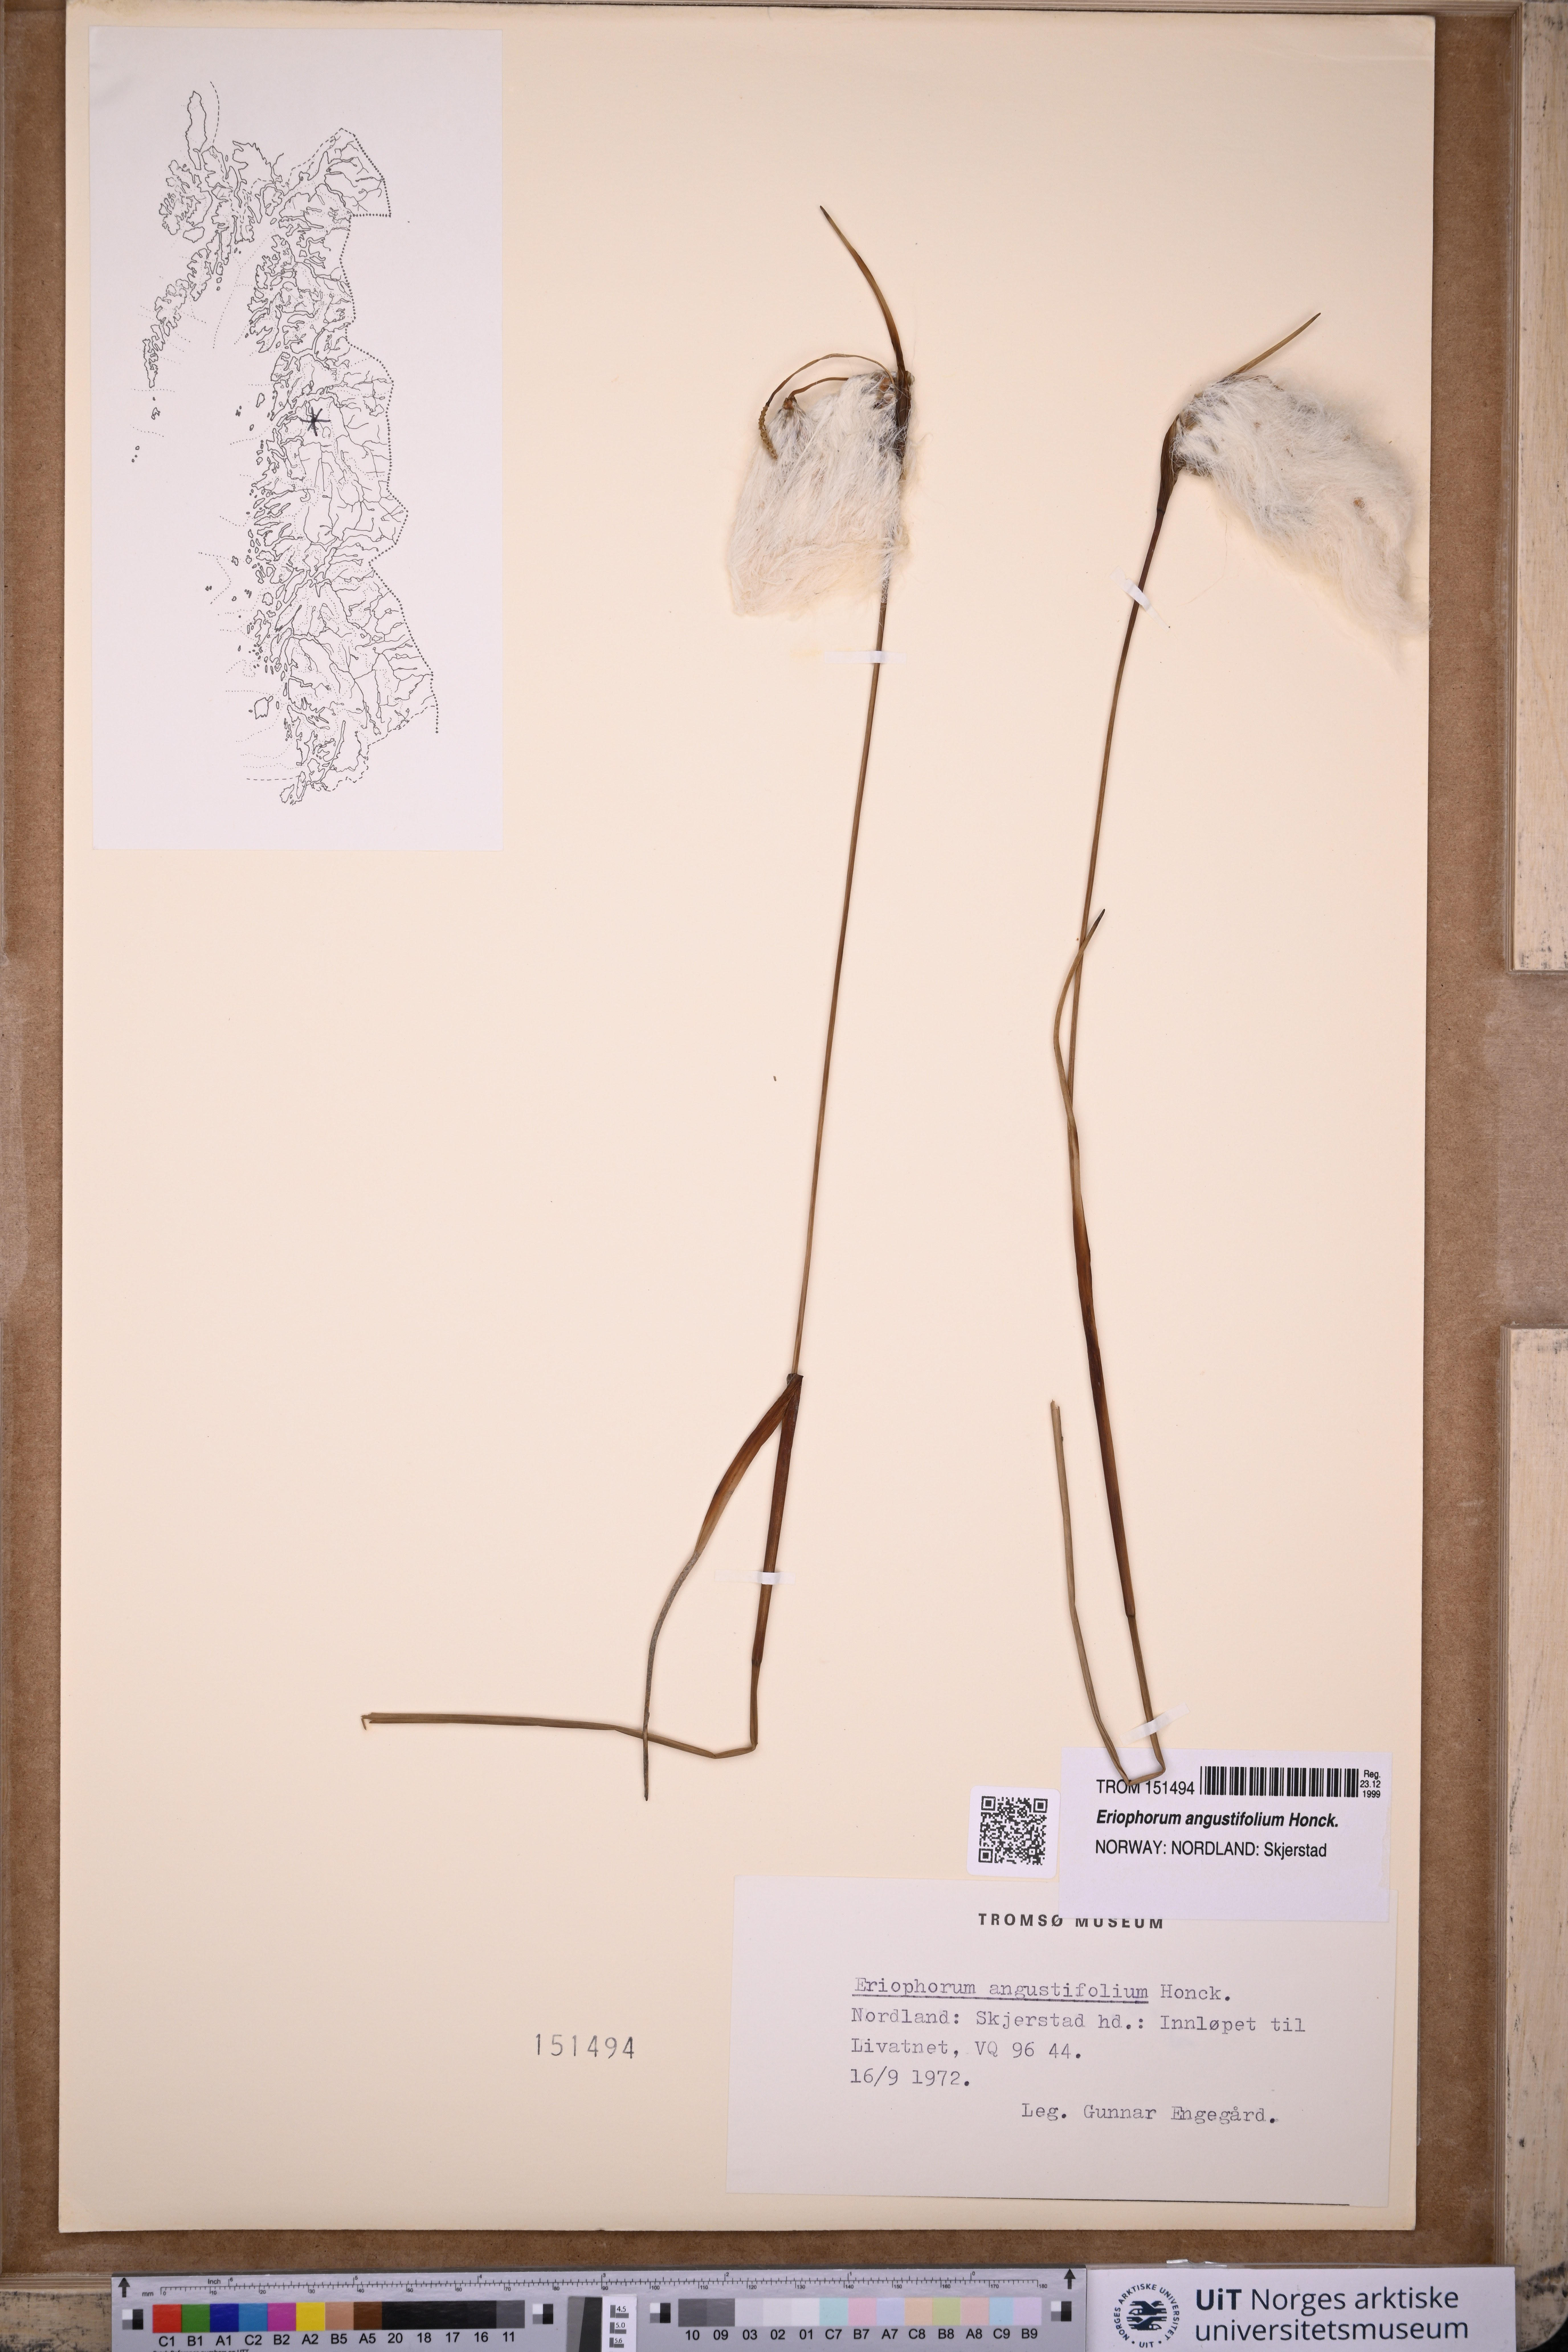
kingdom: Plantae
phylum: Tracheophyta
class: Liliopsida
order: Poales
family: Cyperaceae
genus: Eriophorum
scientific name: Eriophorum angustifolium
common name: Common cottongrass
